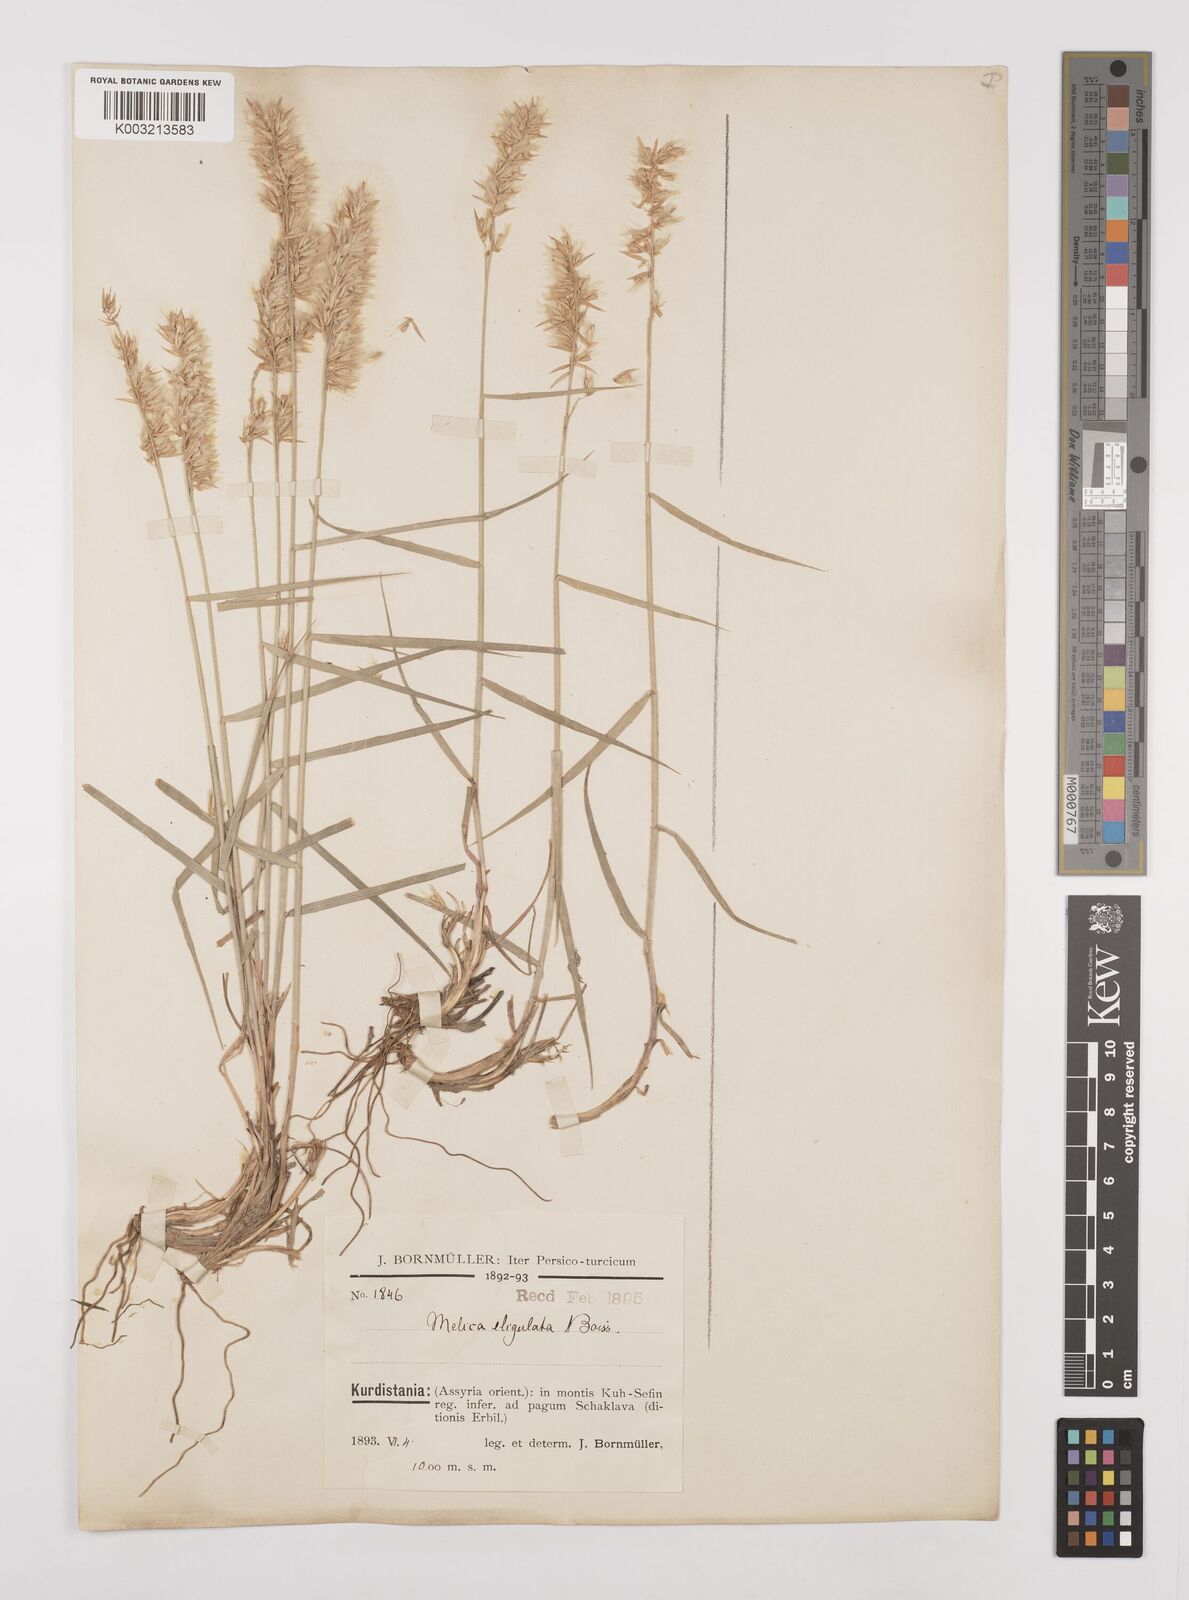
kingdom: Plantae
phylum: Tracheophyta
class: Liliopsida
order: Poales
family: Poaceae
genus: Melica
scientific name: Melica eligulata
